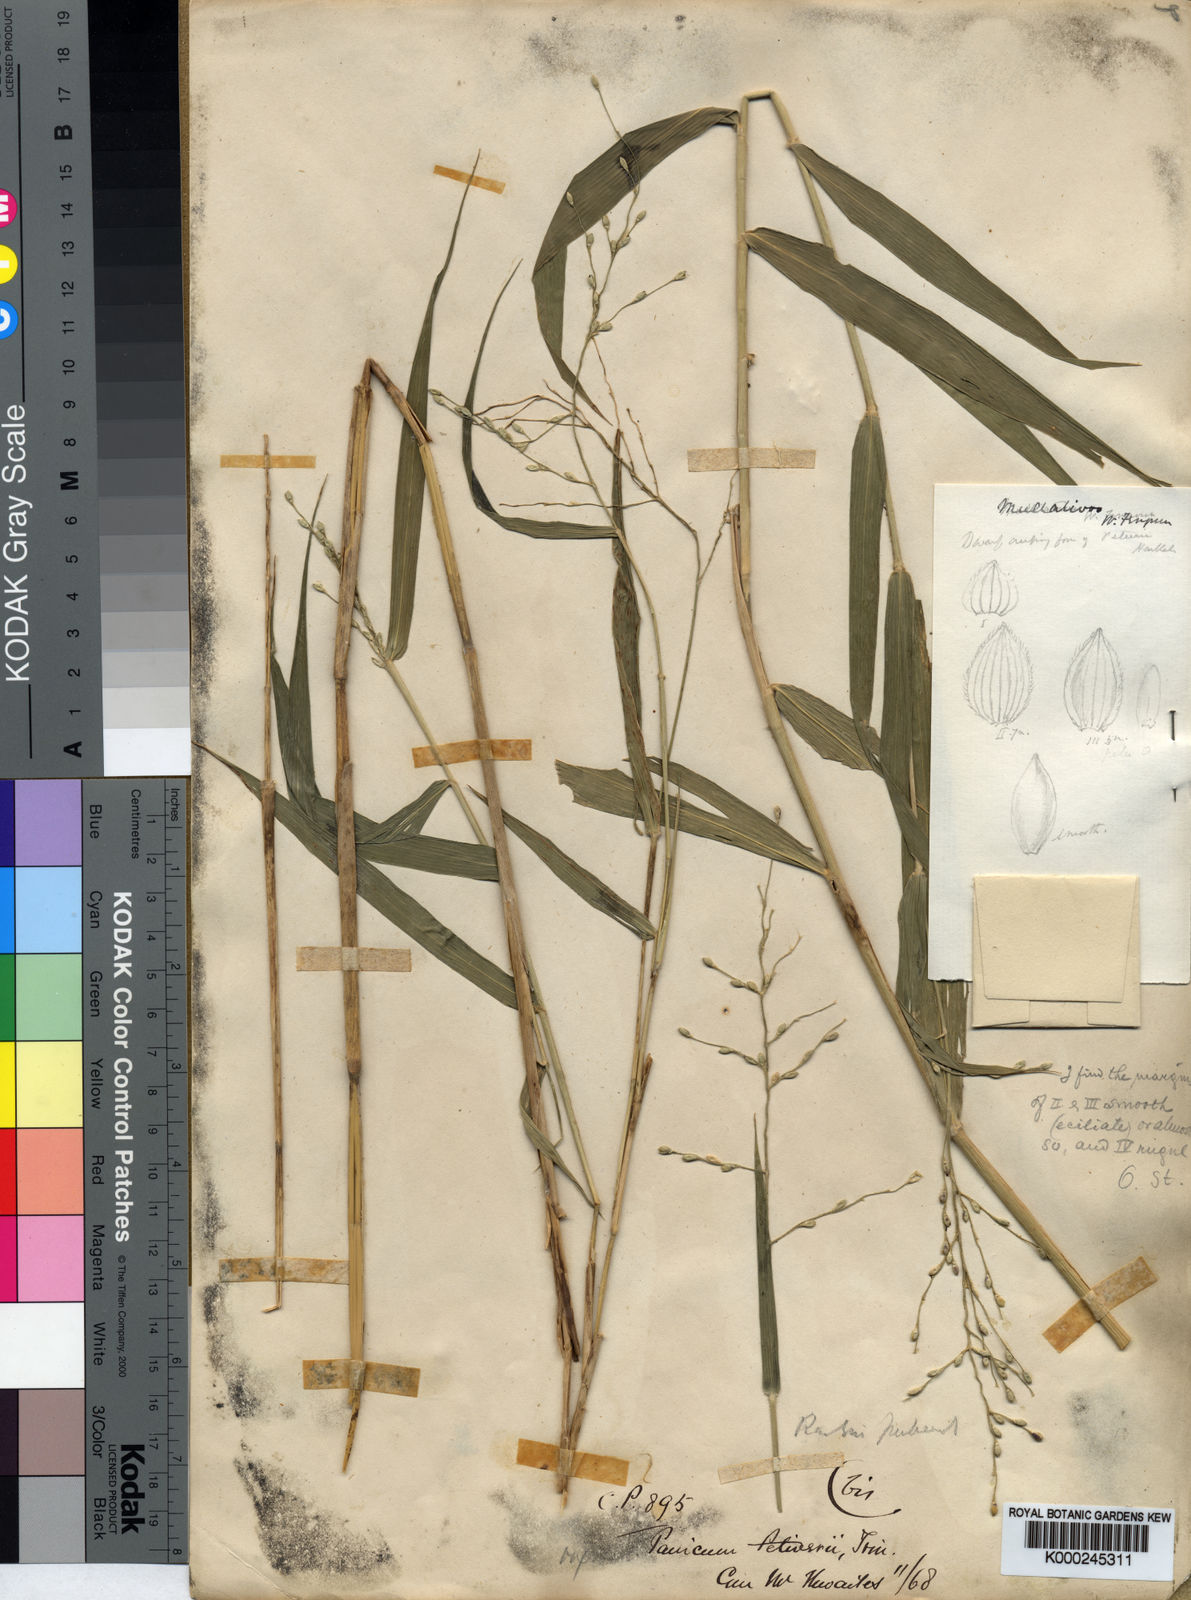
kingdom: Plantae
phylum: Tracheophyta
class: Liliopsida
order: Poales
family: Poaceae
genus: Urochloa
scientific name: Urochloa Brachiaria semiverticillata
